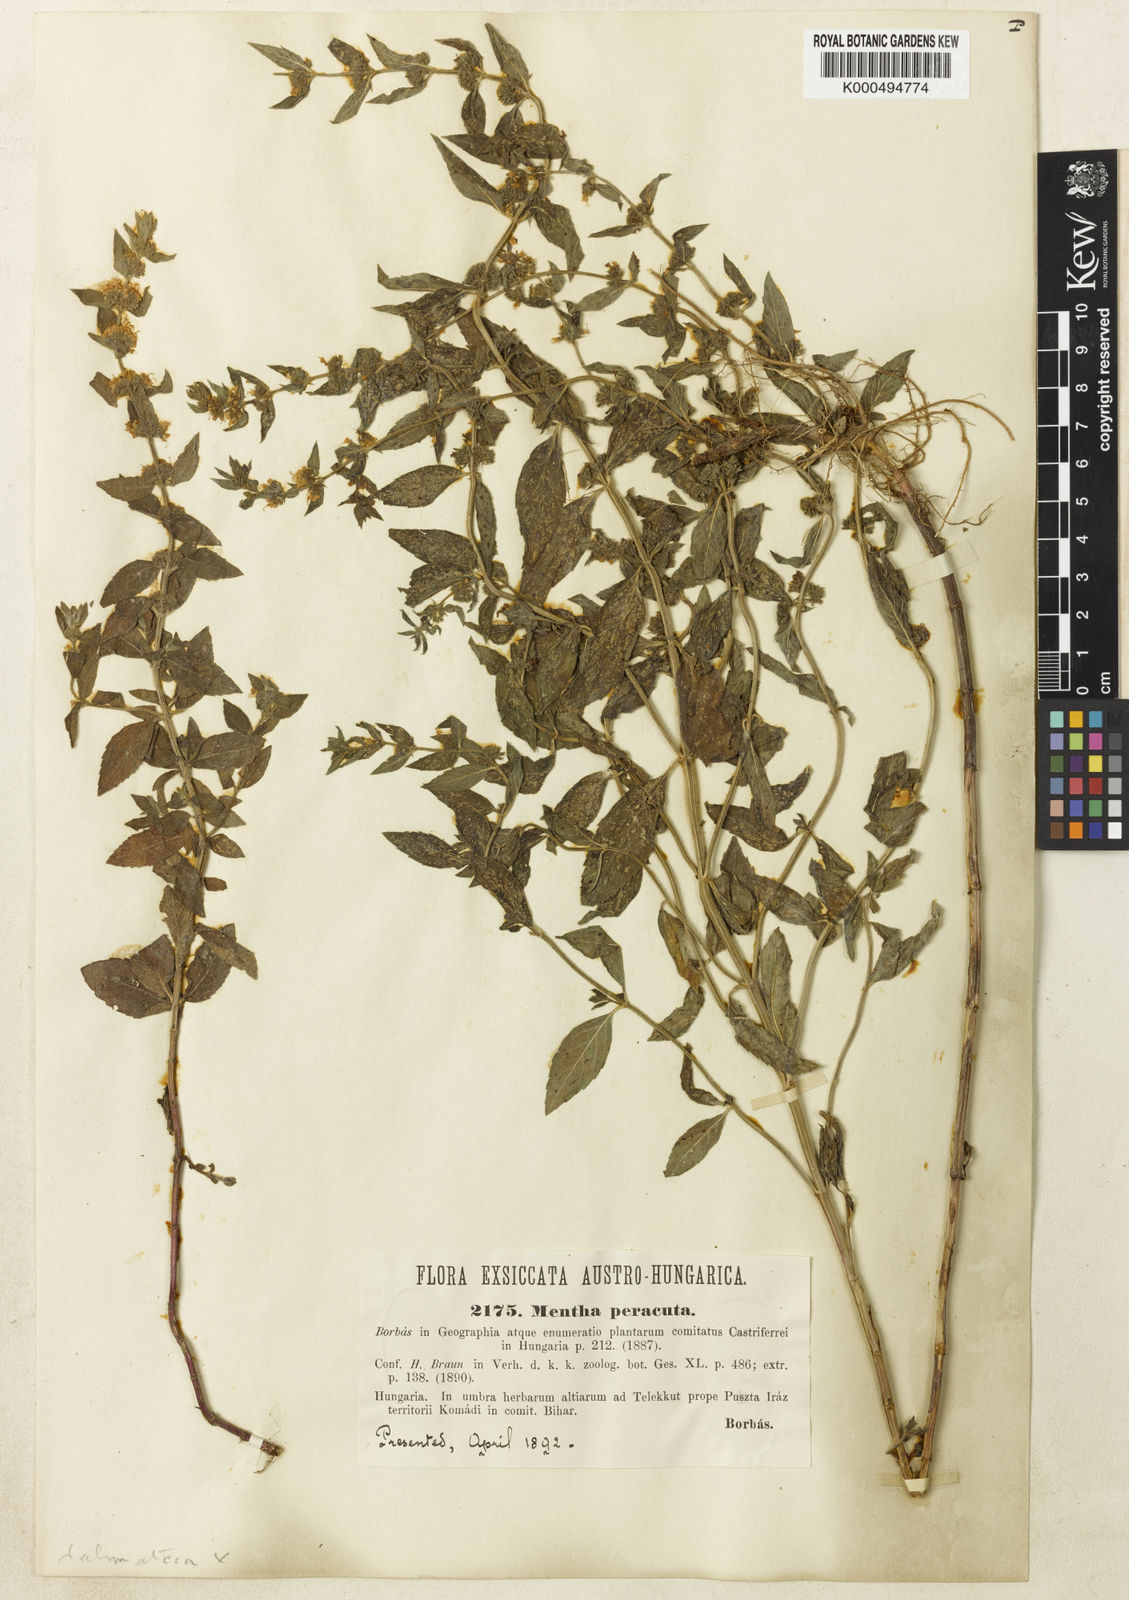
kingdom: Plantae
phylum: Tracheophyta
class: Magnoliopsida
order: Lamiales
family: Lamiaceae
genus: Mentha
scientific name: Mentha dalmatica
